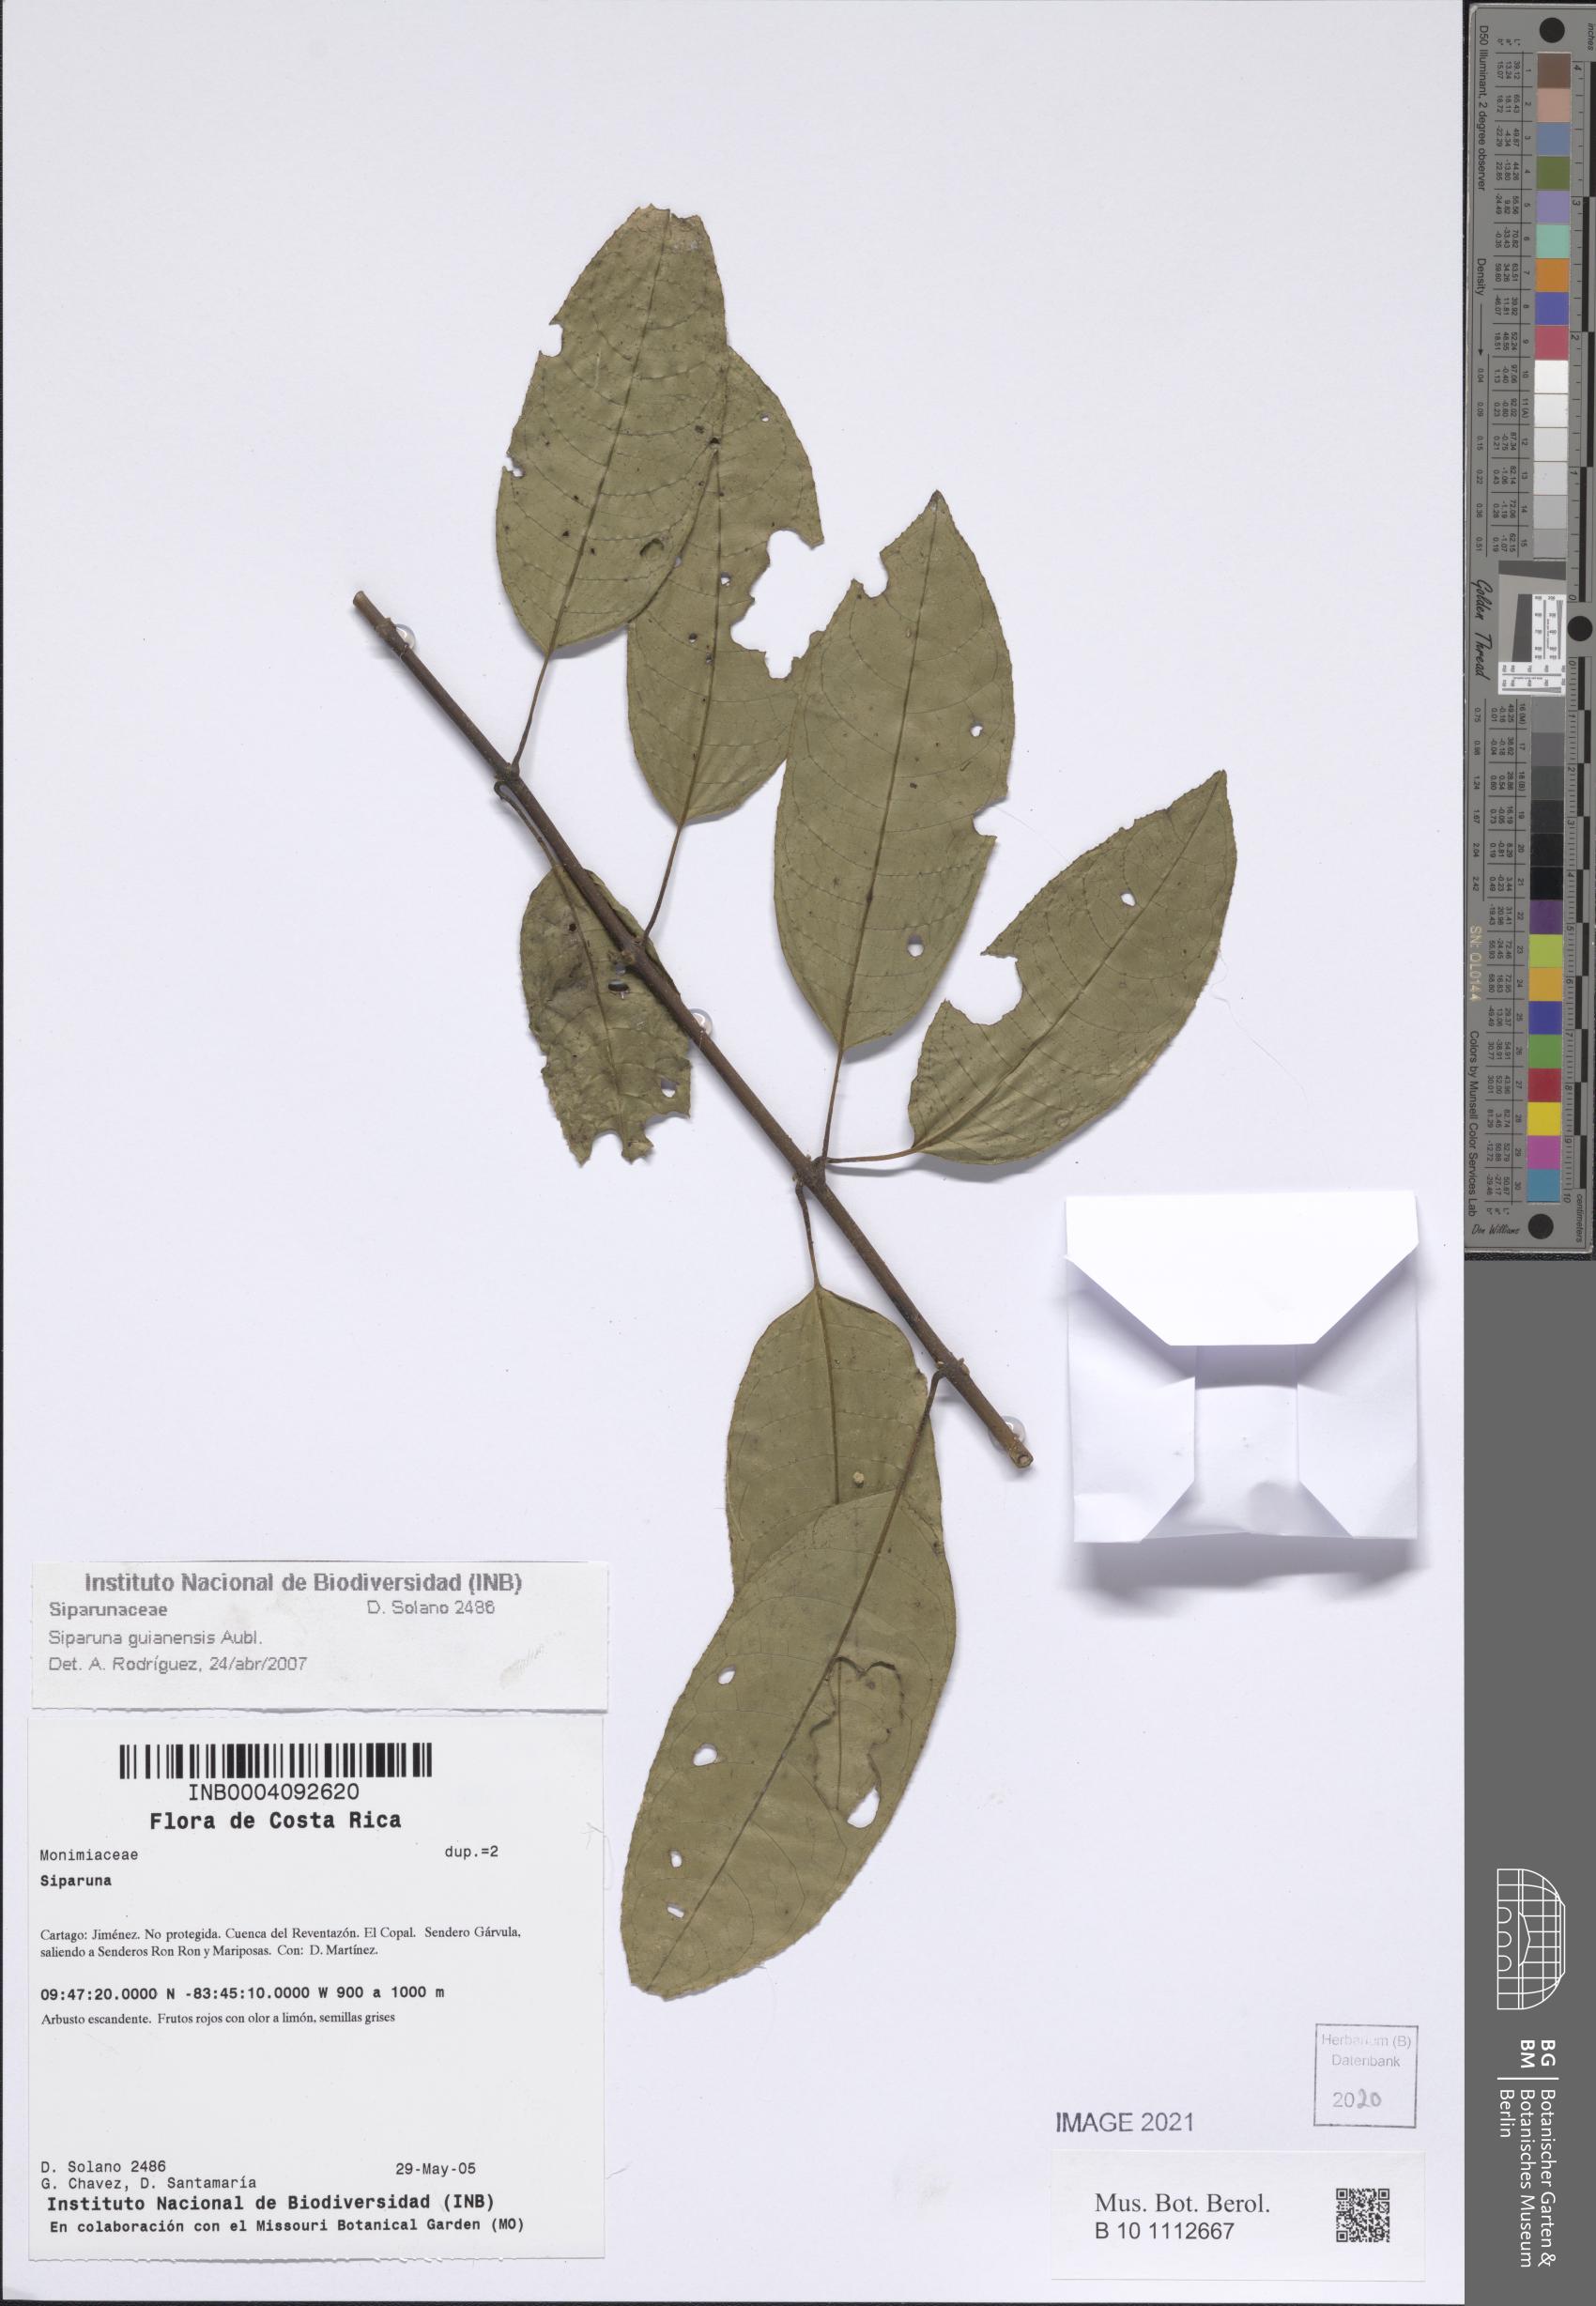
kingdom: Plantae
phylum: Tracheophyta
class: Magnoliopsida
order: Laurales
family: Siparunaceae
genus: Siparuna
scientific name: Siparuna guianensis
